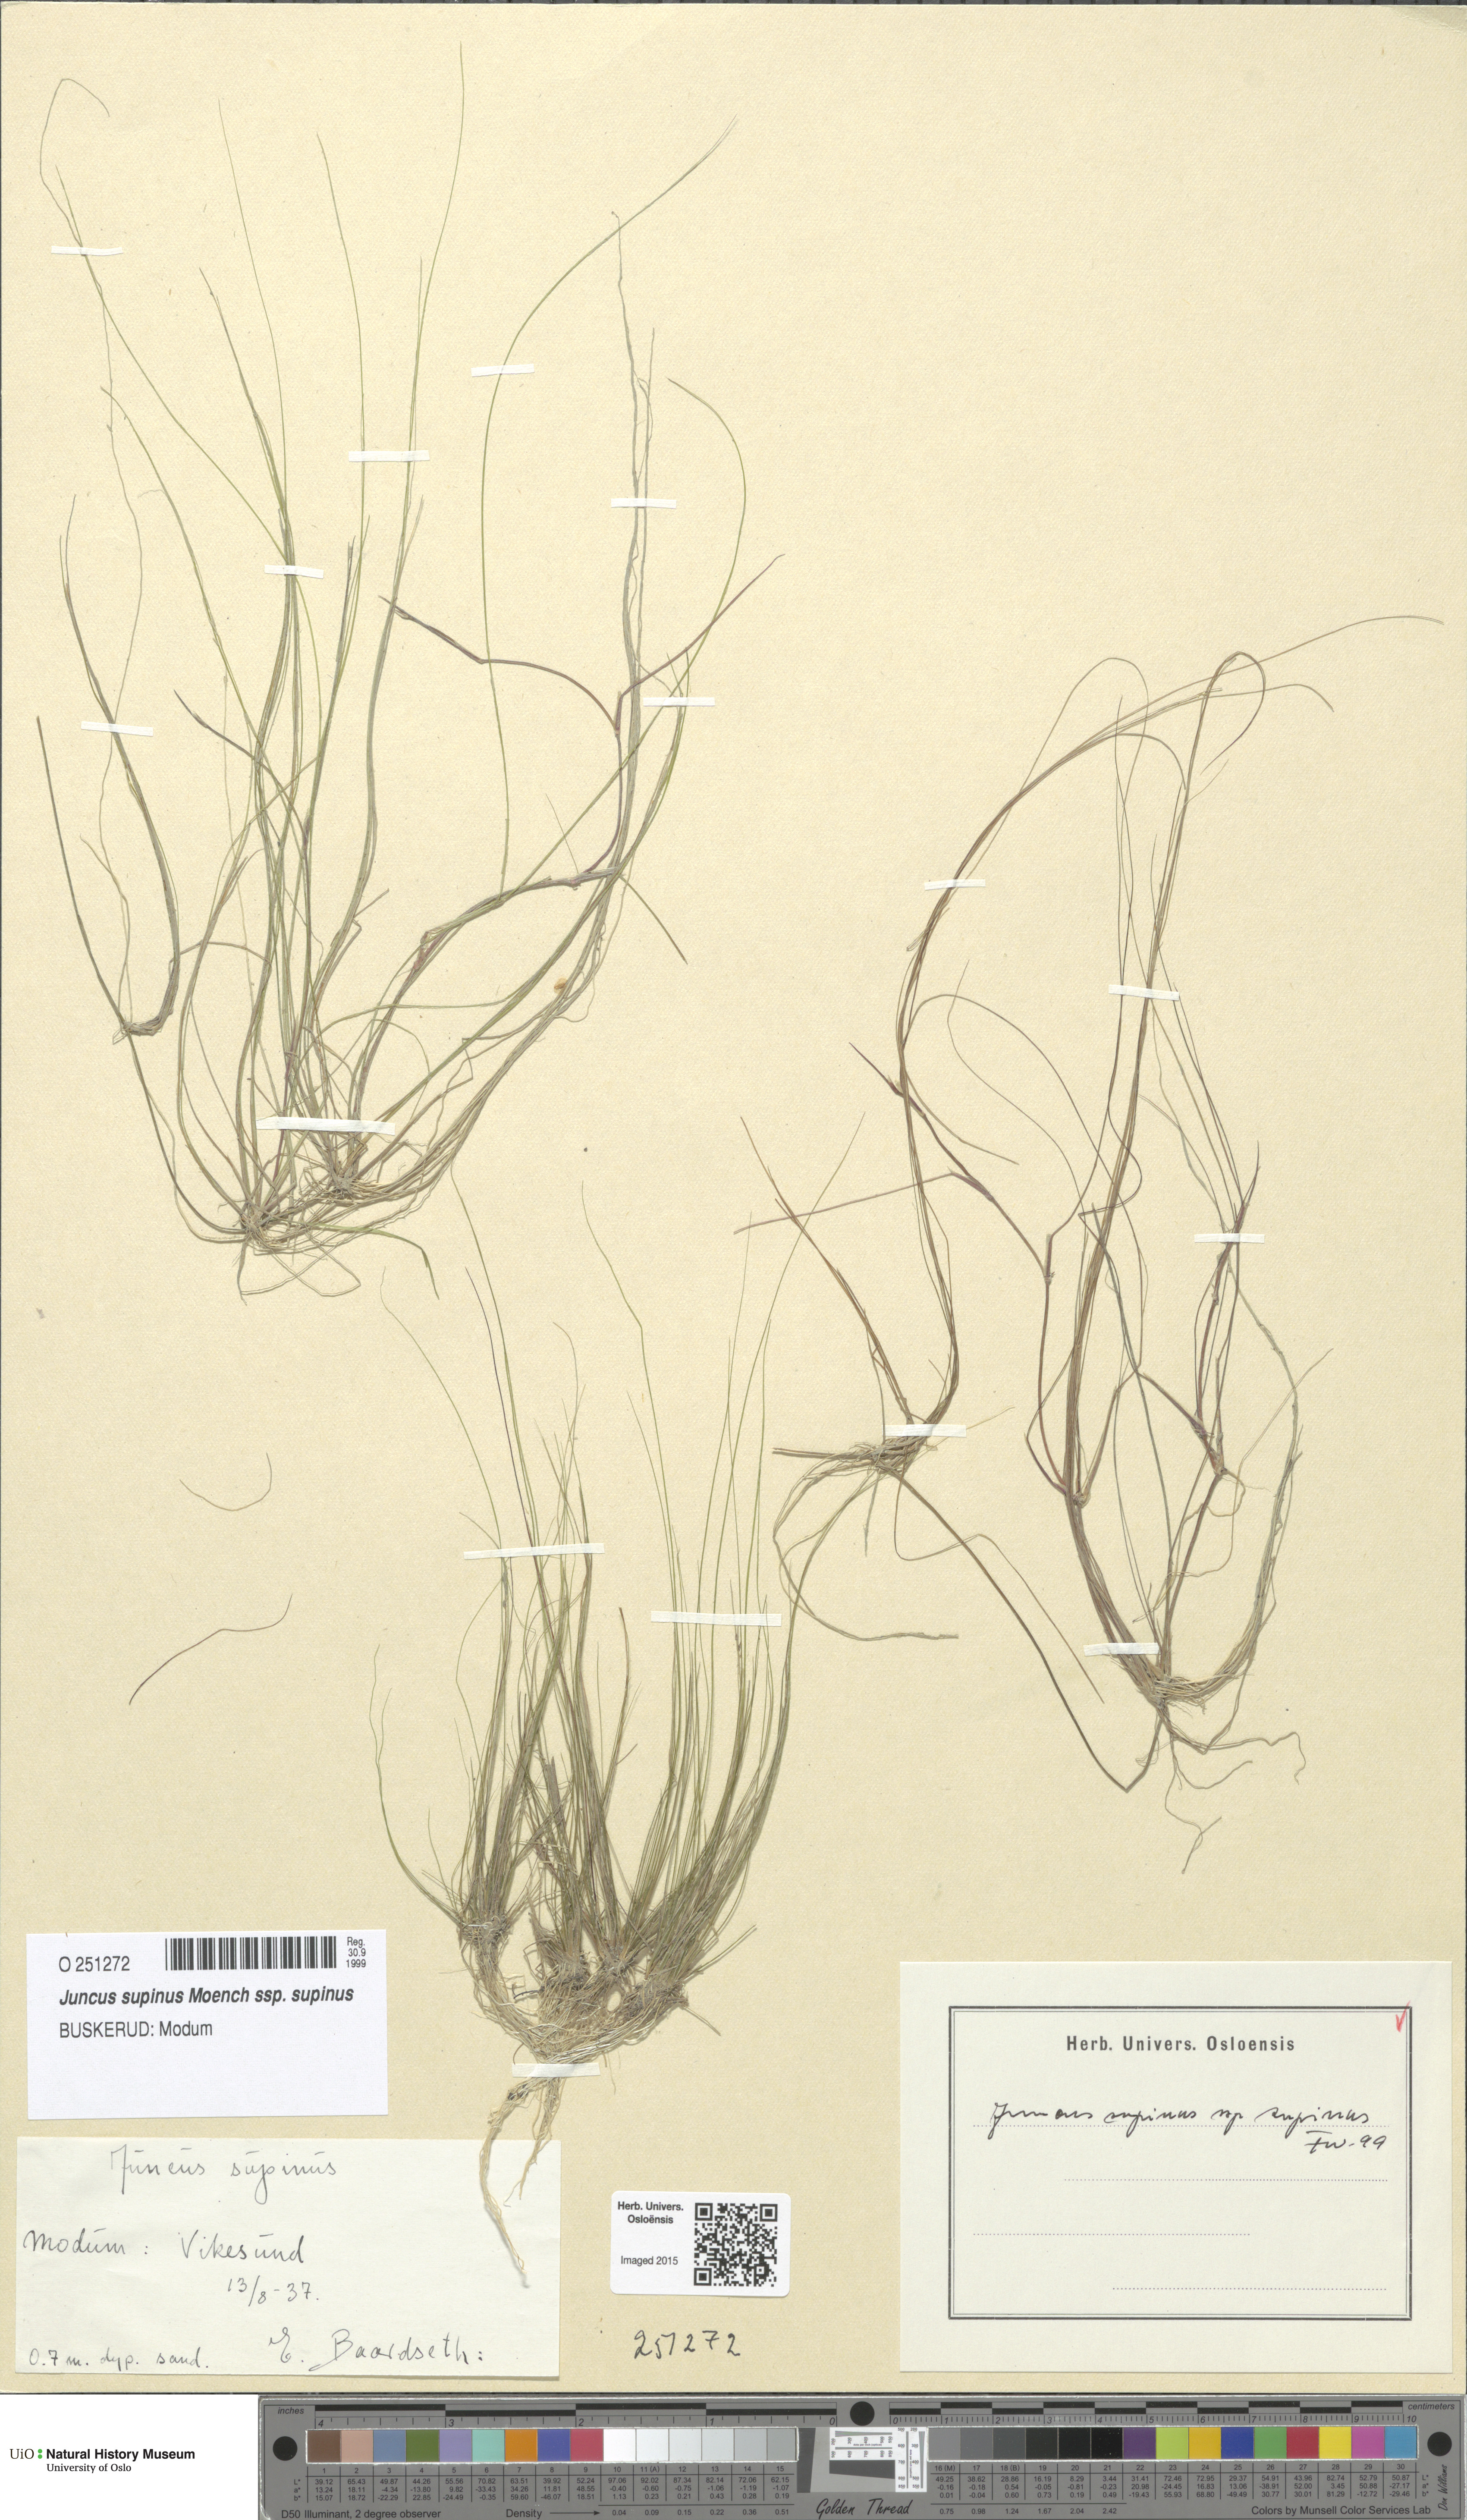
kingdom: Plantae
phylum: Tracheophyta
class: Liliopsida
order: Poales
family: Juncaceae
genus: Juncus
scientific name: Juncus bulbosus
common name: Bulbous rush
